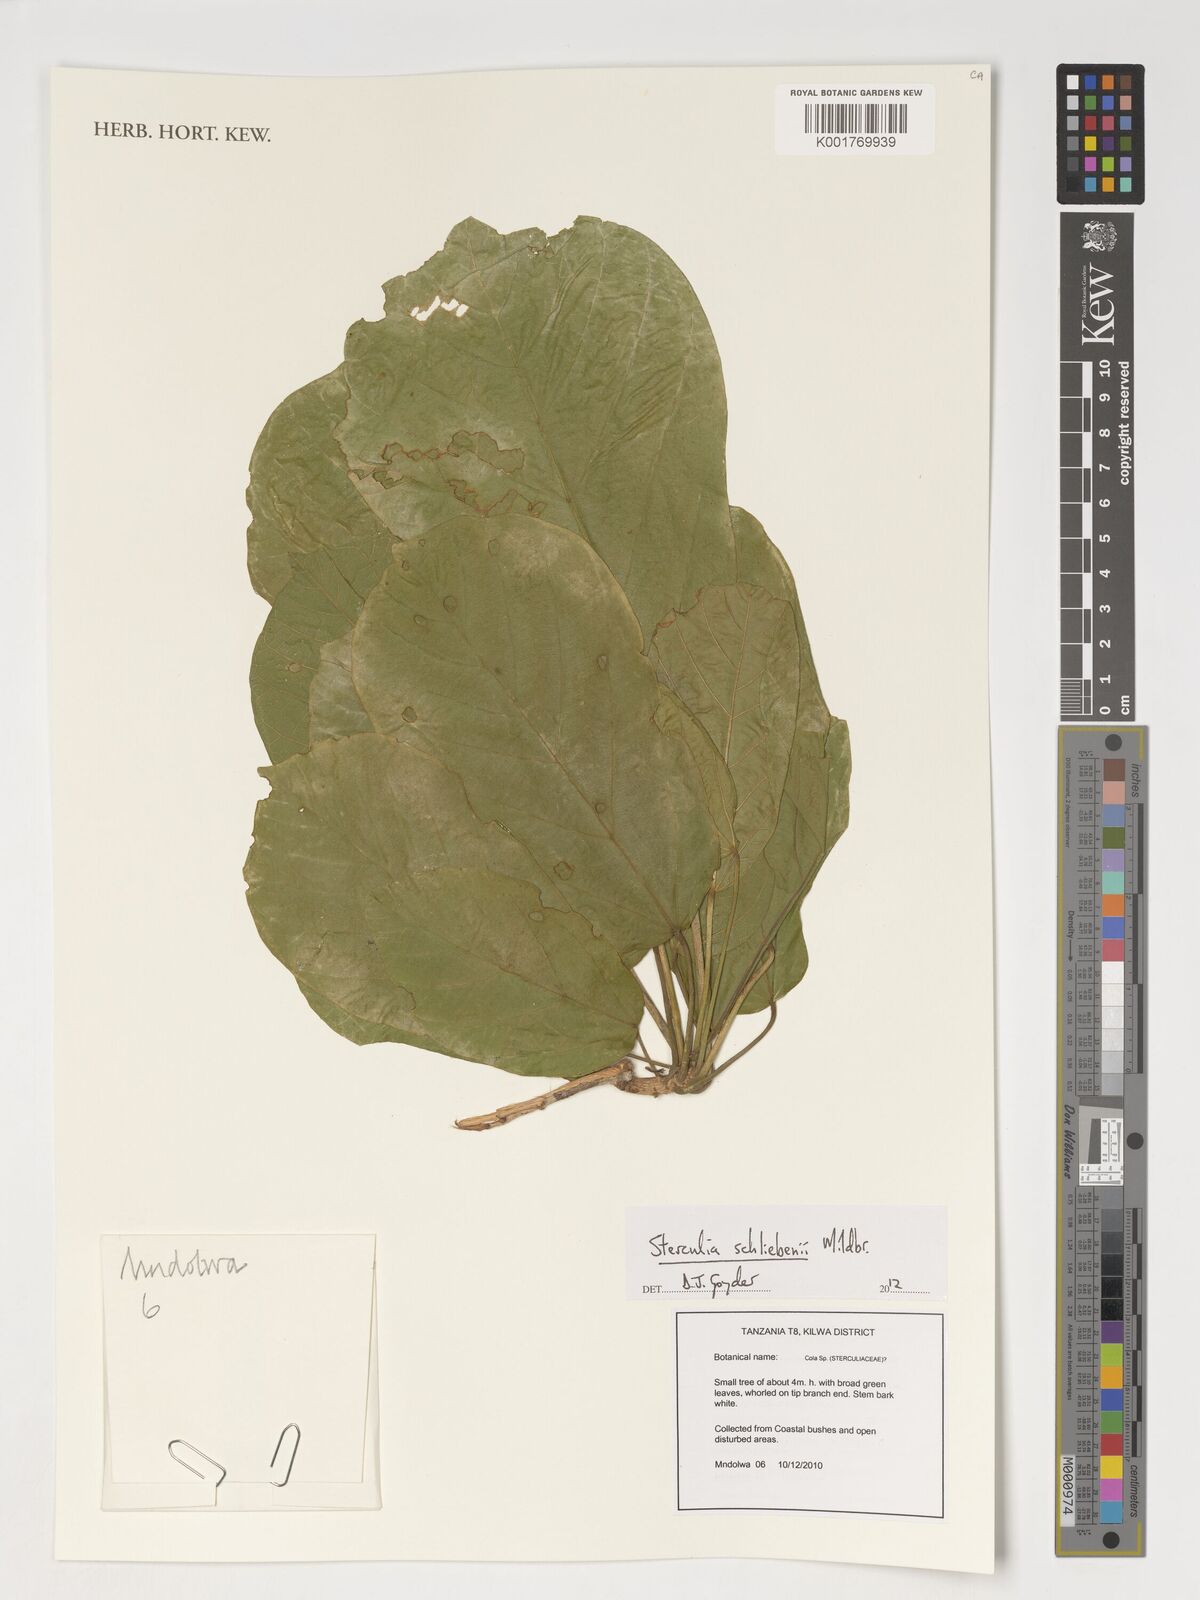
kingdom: Plantae
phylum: Tracheophyta
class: Magnoliopsida
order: Malvales
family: Malvaceae
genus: Sterculia
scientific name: Sterculia schliebenii
